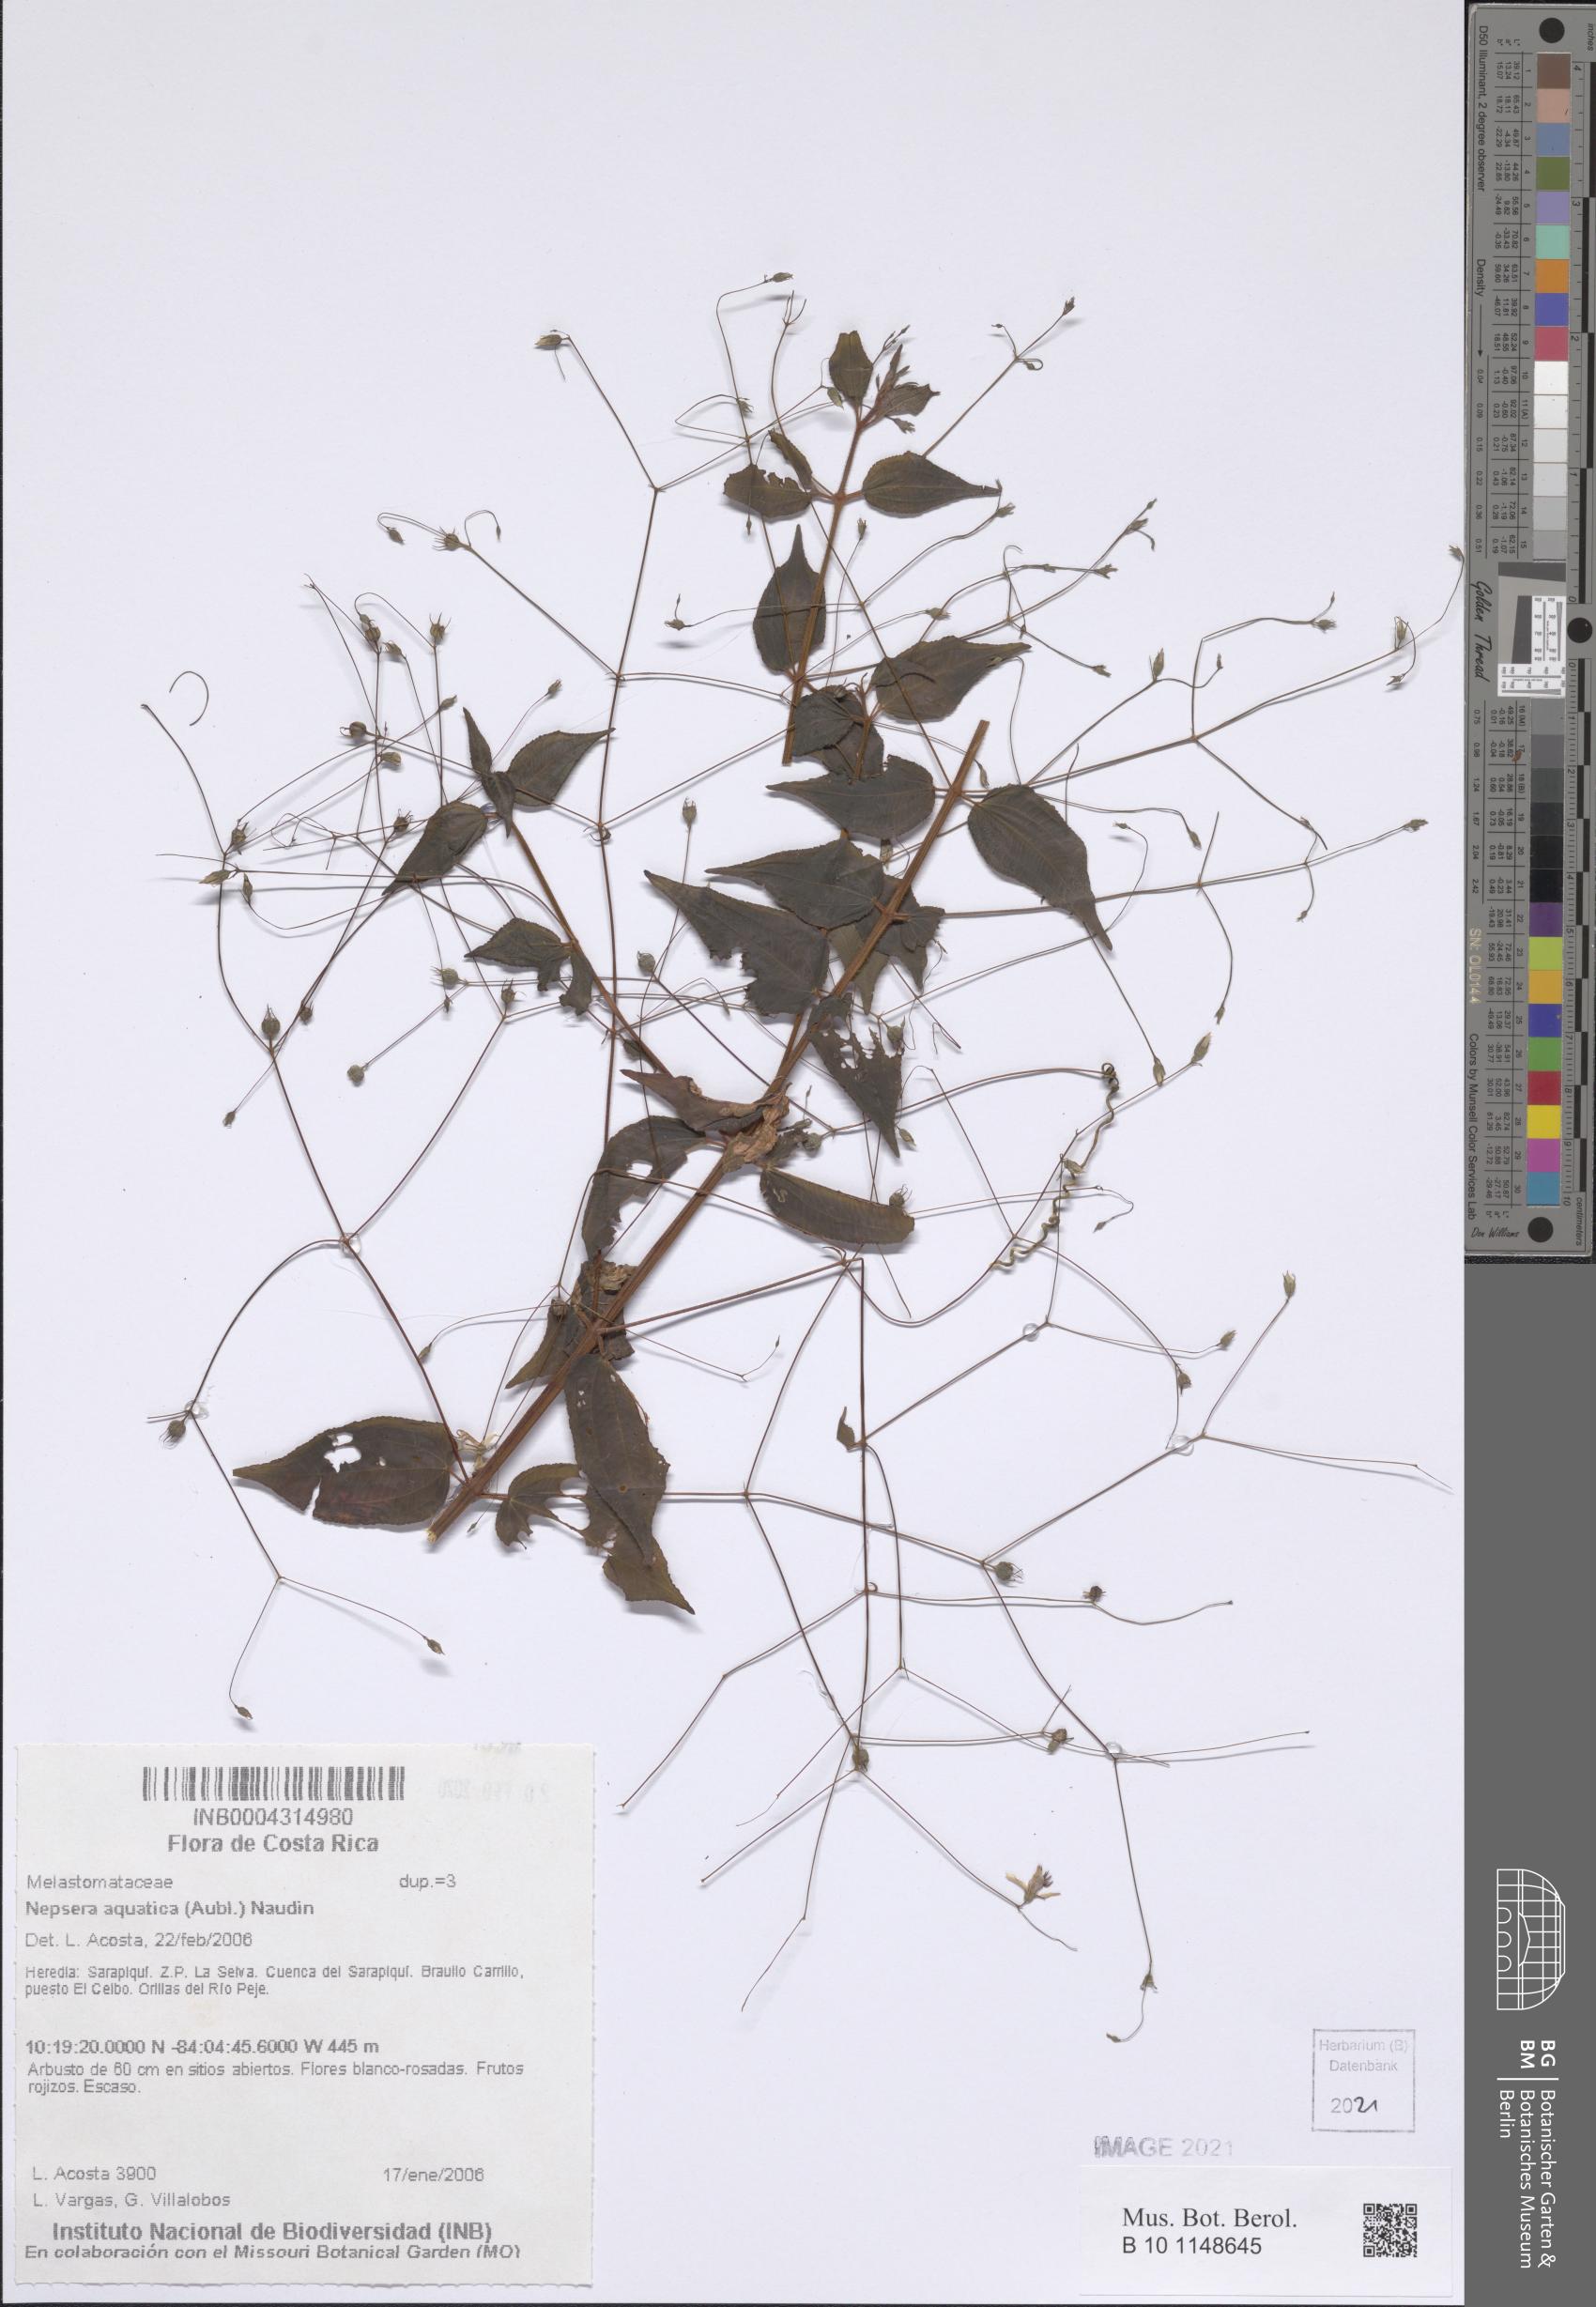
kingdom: Plantae
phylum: Tracheophyta
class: Magnoliopsida
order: Myrtales
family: Melastomataceae
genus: Nepsera
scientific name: Nepsera aquatica
